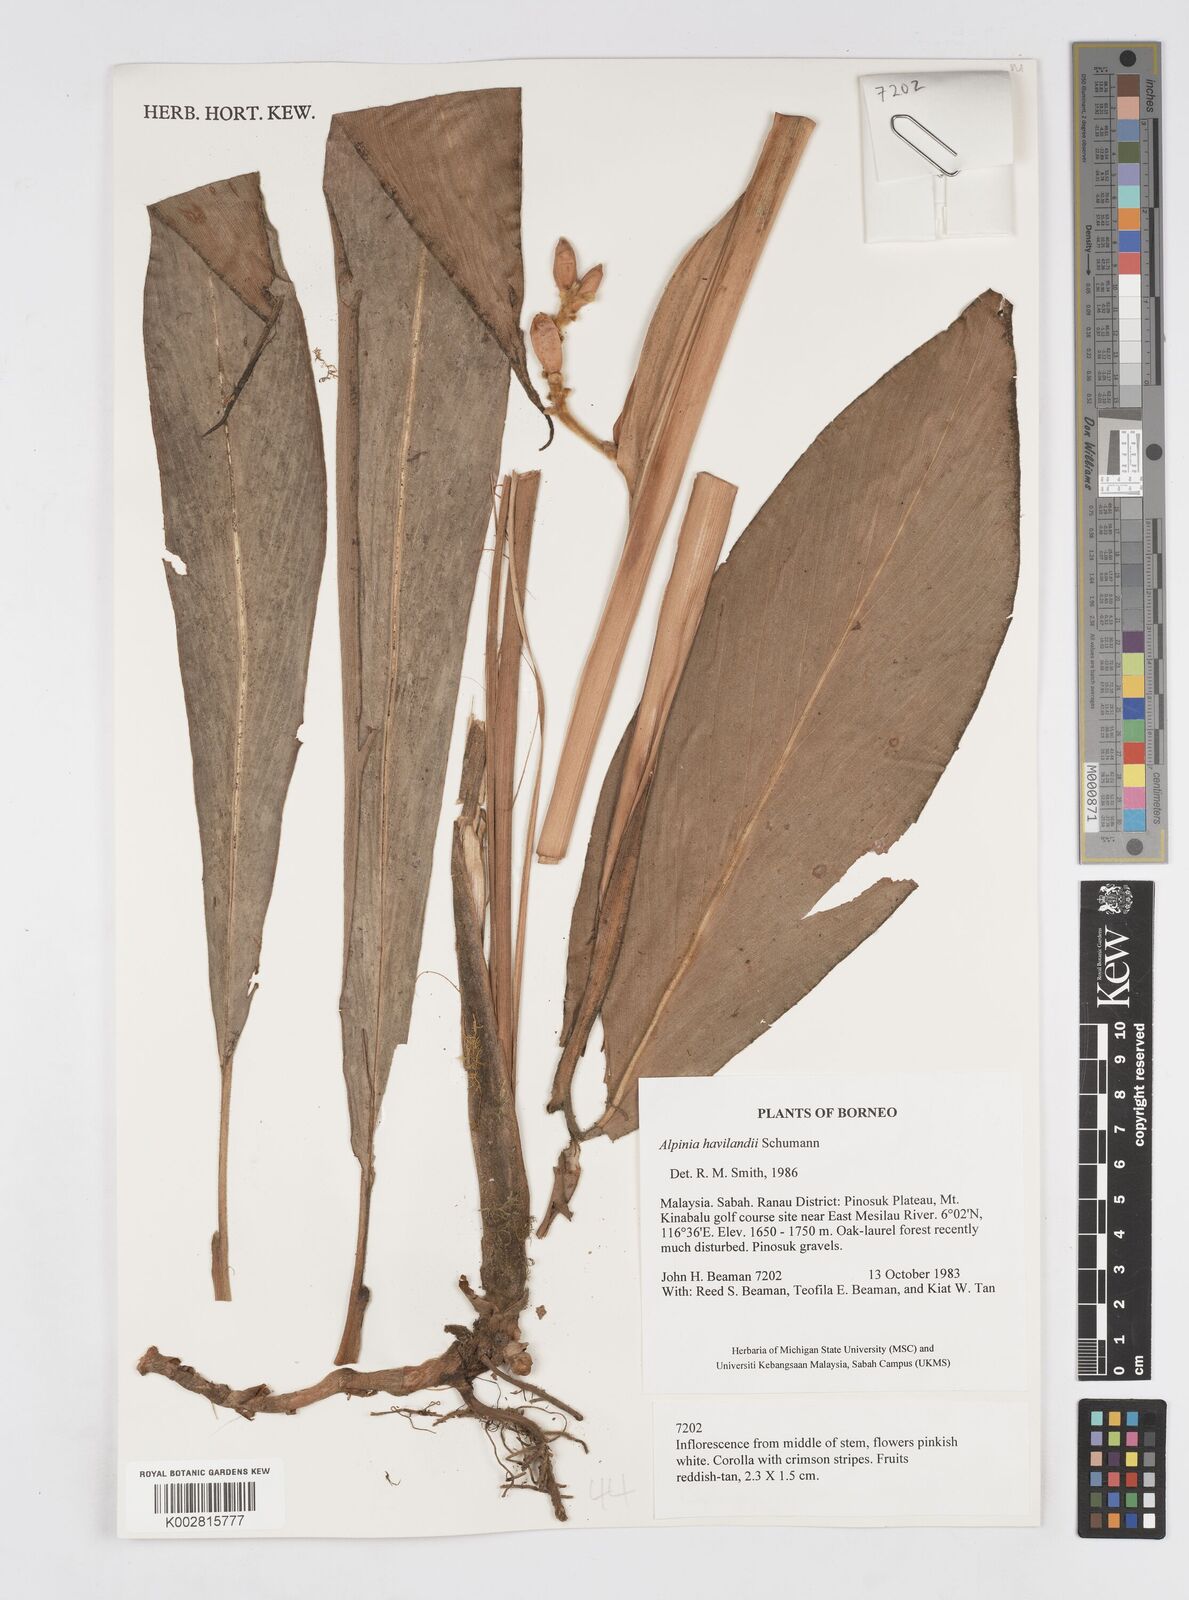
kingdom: Plantae
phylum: Tracheophyta
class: Liliopsida
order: Zingiberales
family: Zingiberaceae
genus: Alpinia
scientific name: Alpinia havilandii
